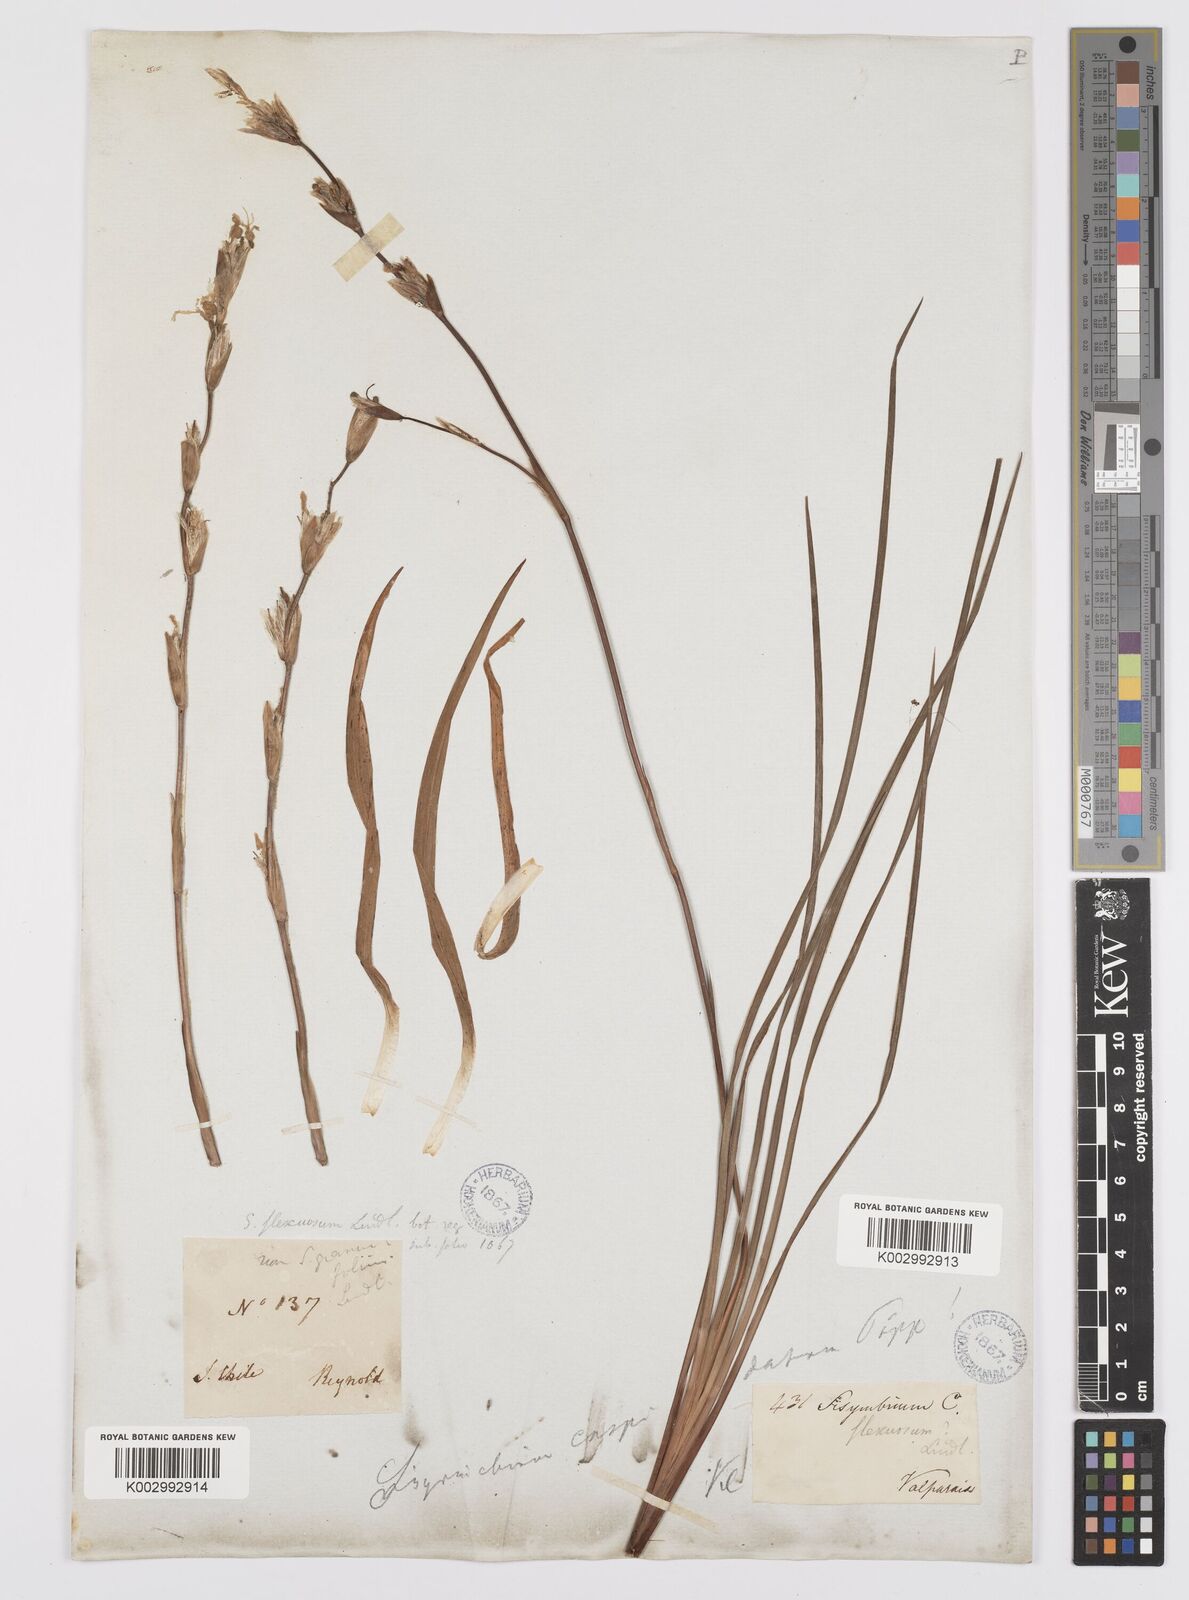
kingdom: Plantae
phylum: Tracheophyta
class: Liliopsida
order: Asparagales
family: Iridaceae
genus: Sisyrinchium
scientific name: Sisyrinchium cuspidatum
